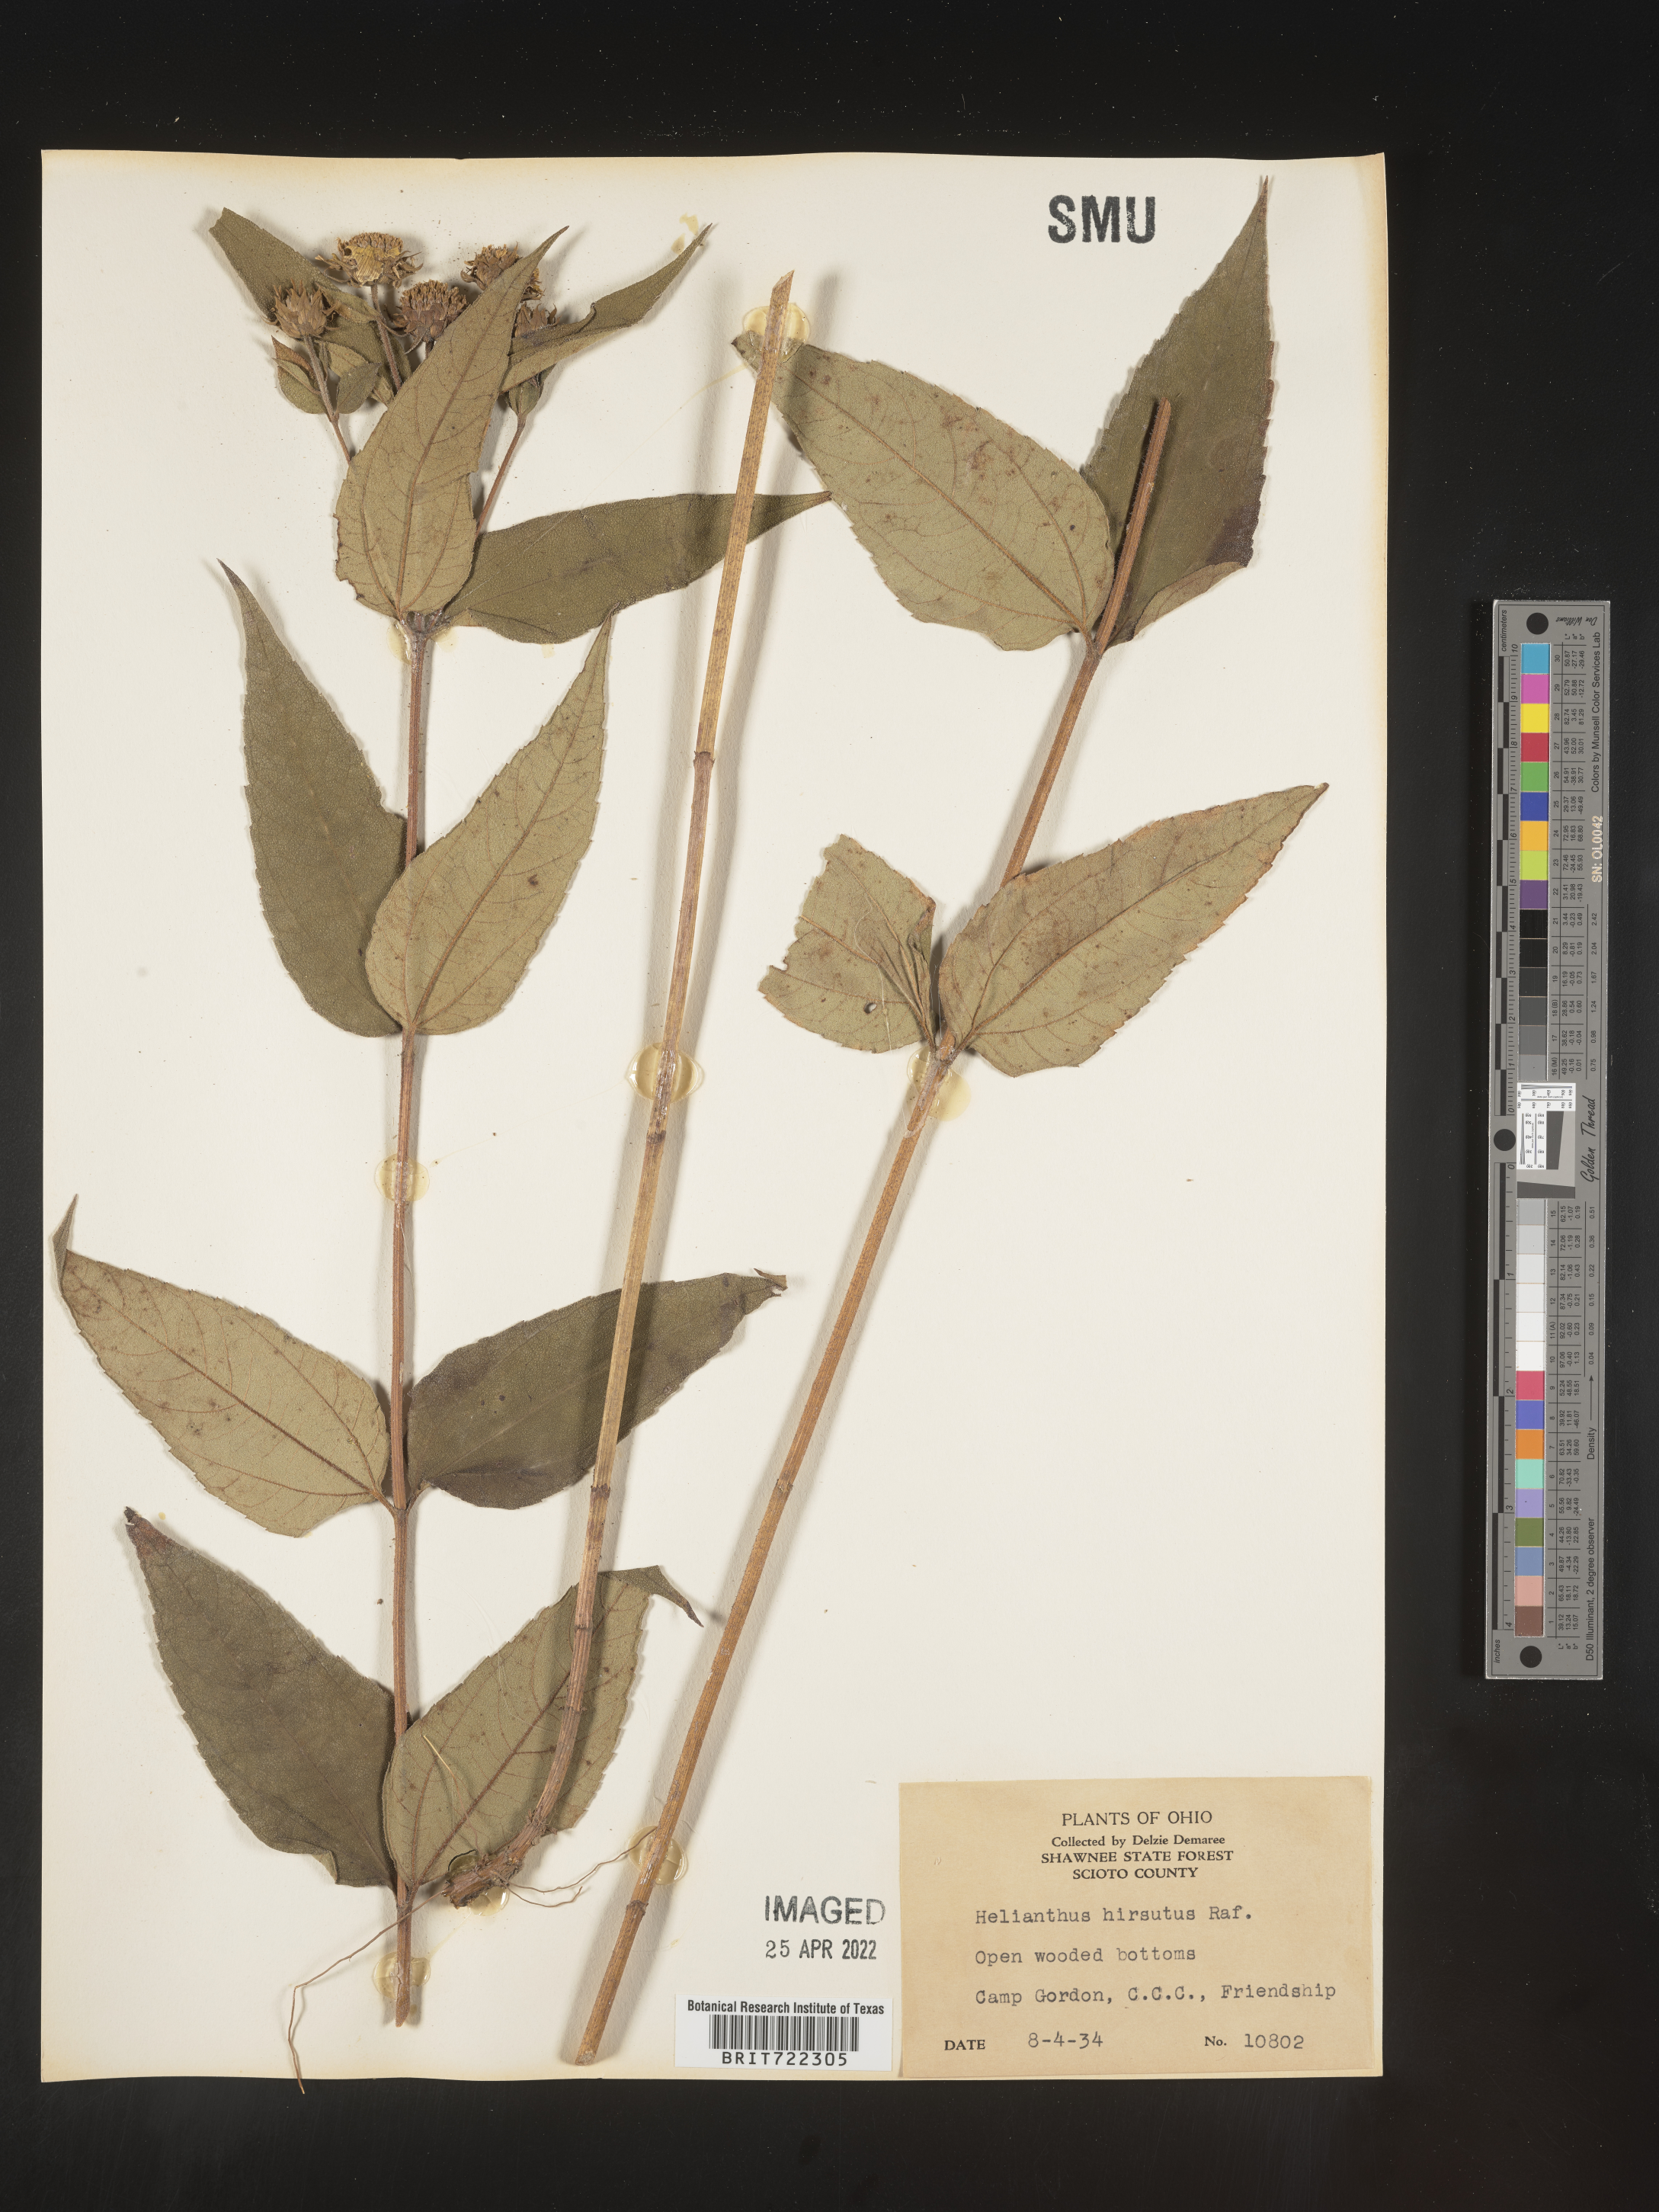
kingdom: Plantae
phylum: Tracheophyta
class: Magnoliopsida
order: Asterales
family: Asteraceae
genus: Helianthus
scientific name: Helianthus hirsutus
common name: Hairy sunflower
